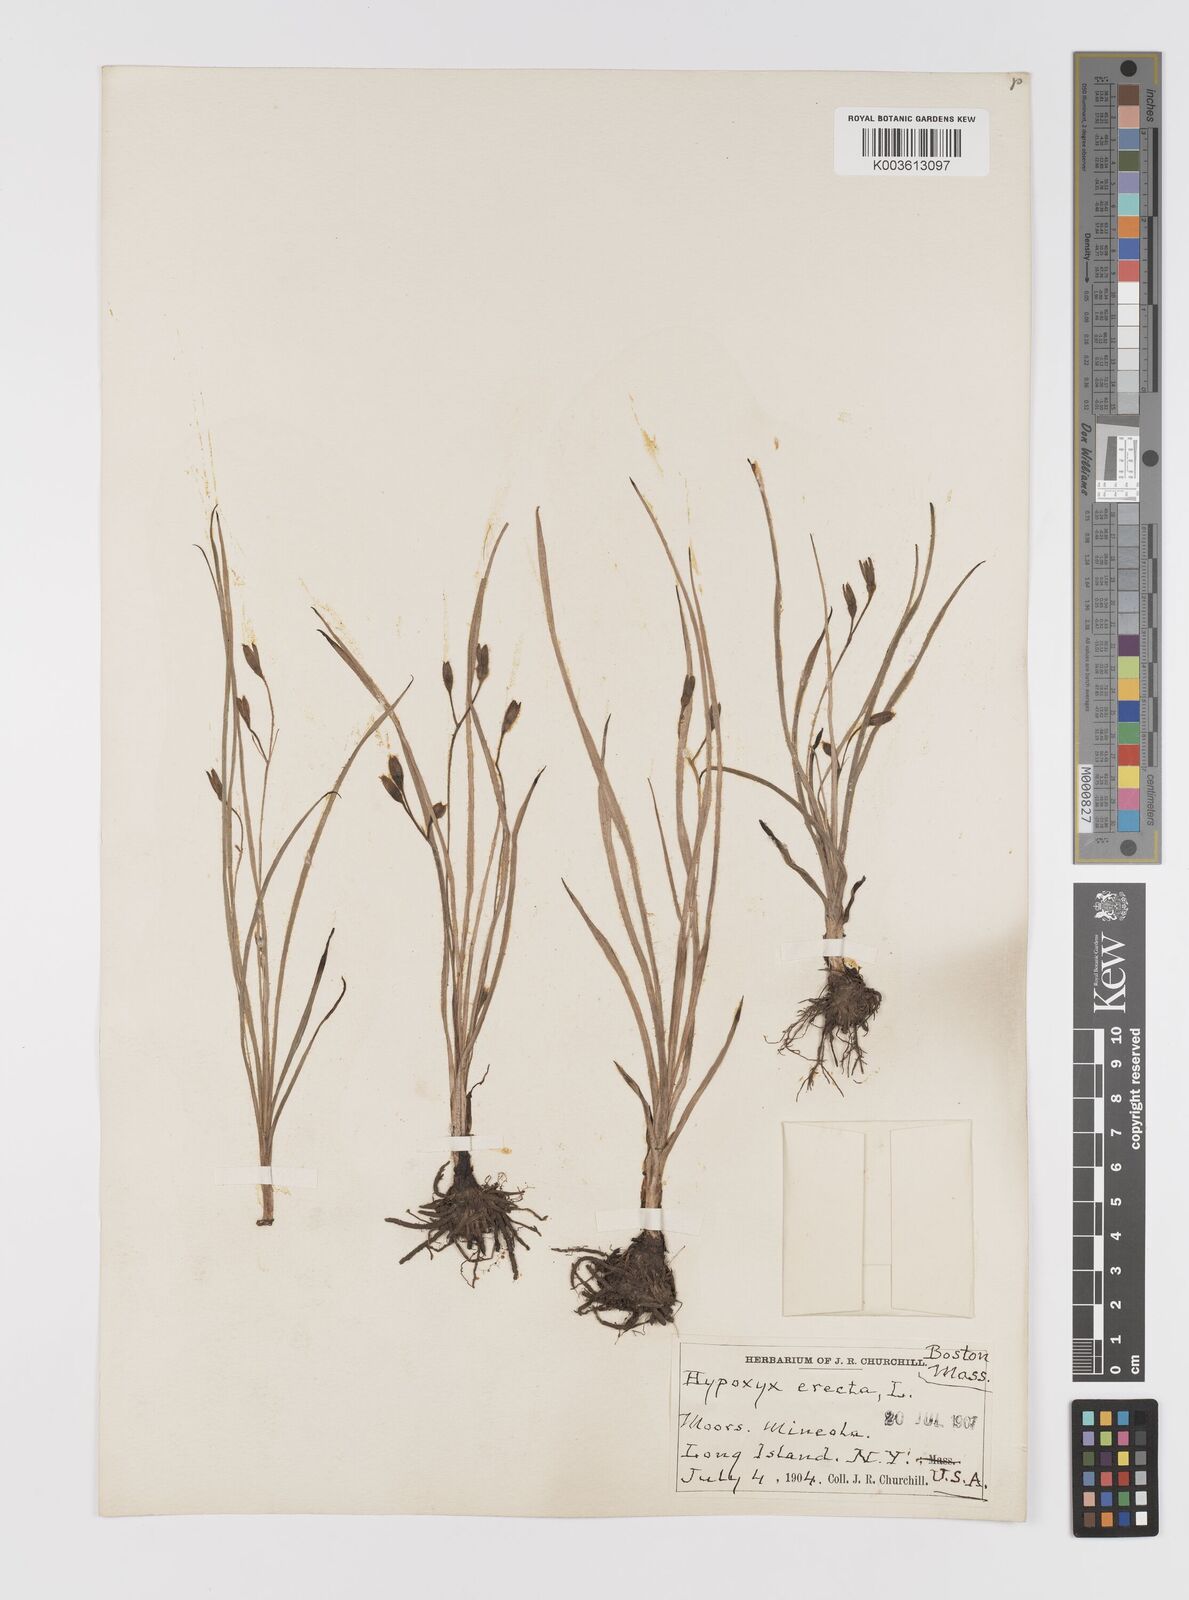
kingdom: Plantae
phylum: Tracheophyta
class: Liliopsida
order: Asparagales
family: Hypoxidaceae
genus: Hypoxis
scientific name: Hypoxis hirsuta
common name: Common goldstar
